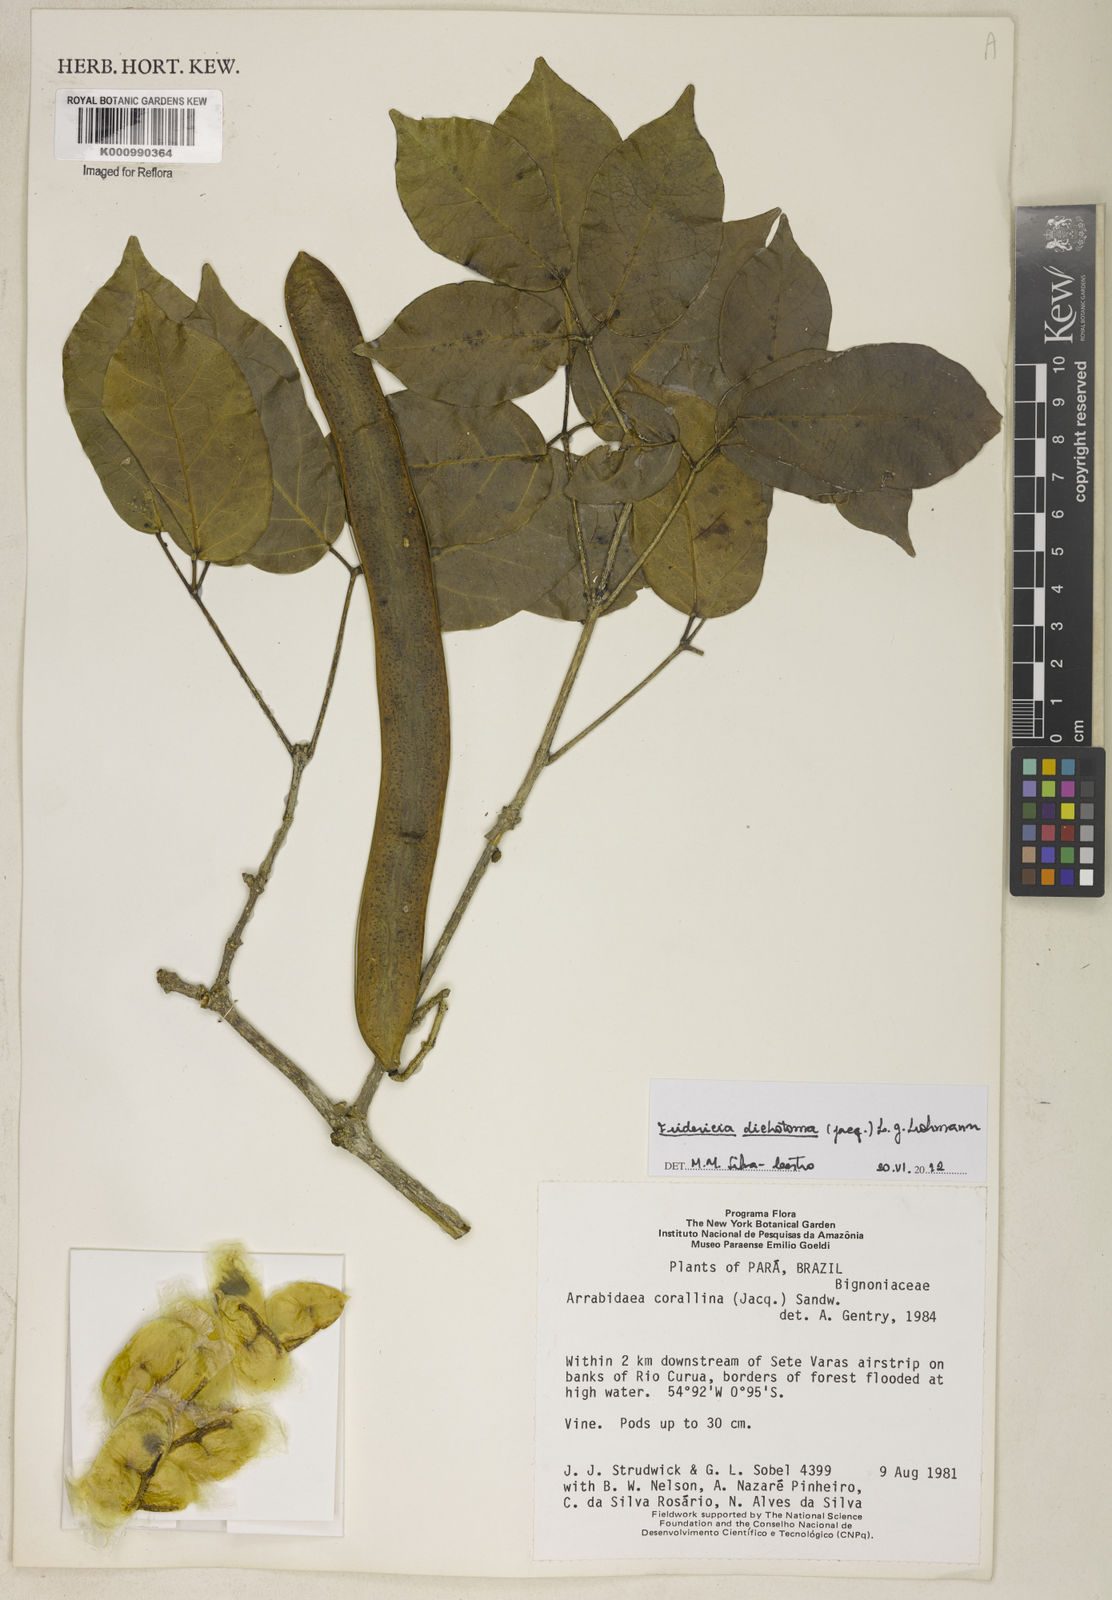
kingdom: Plantae
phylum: Tracheophyta
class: Magnoliopsida
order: Lamiales
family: Bignoniaceae
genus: Tanaecium
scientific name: Tanaecium dichotomum
